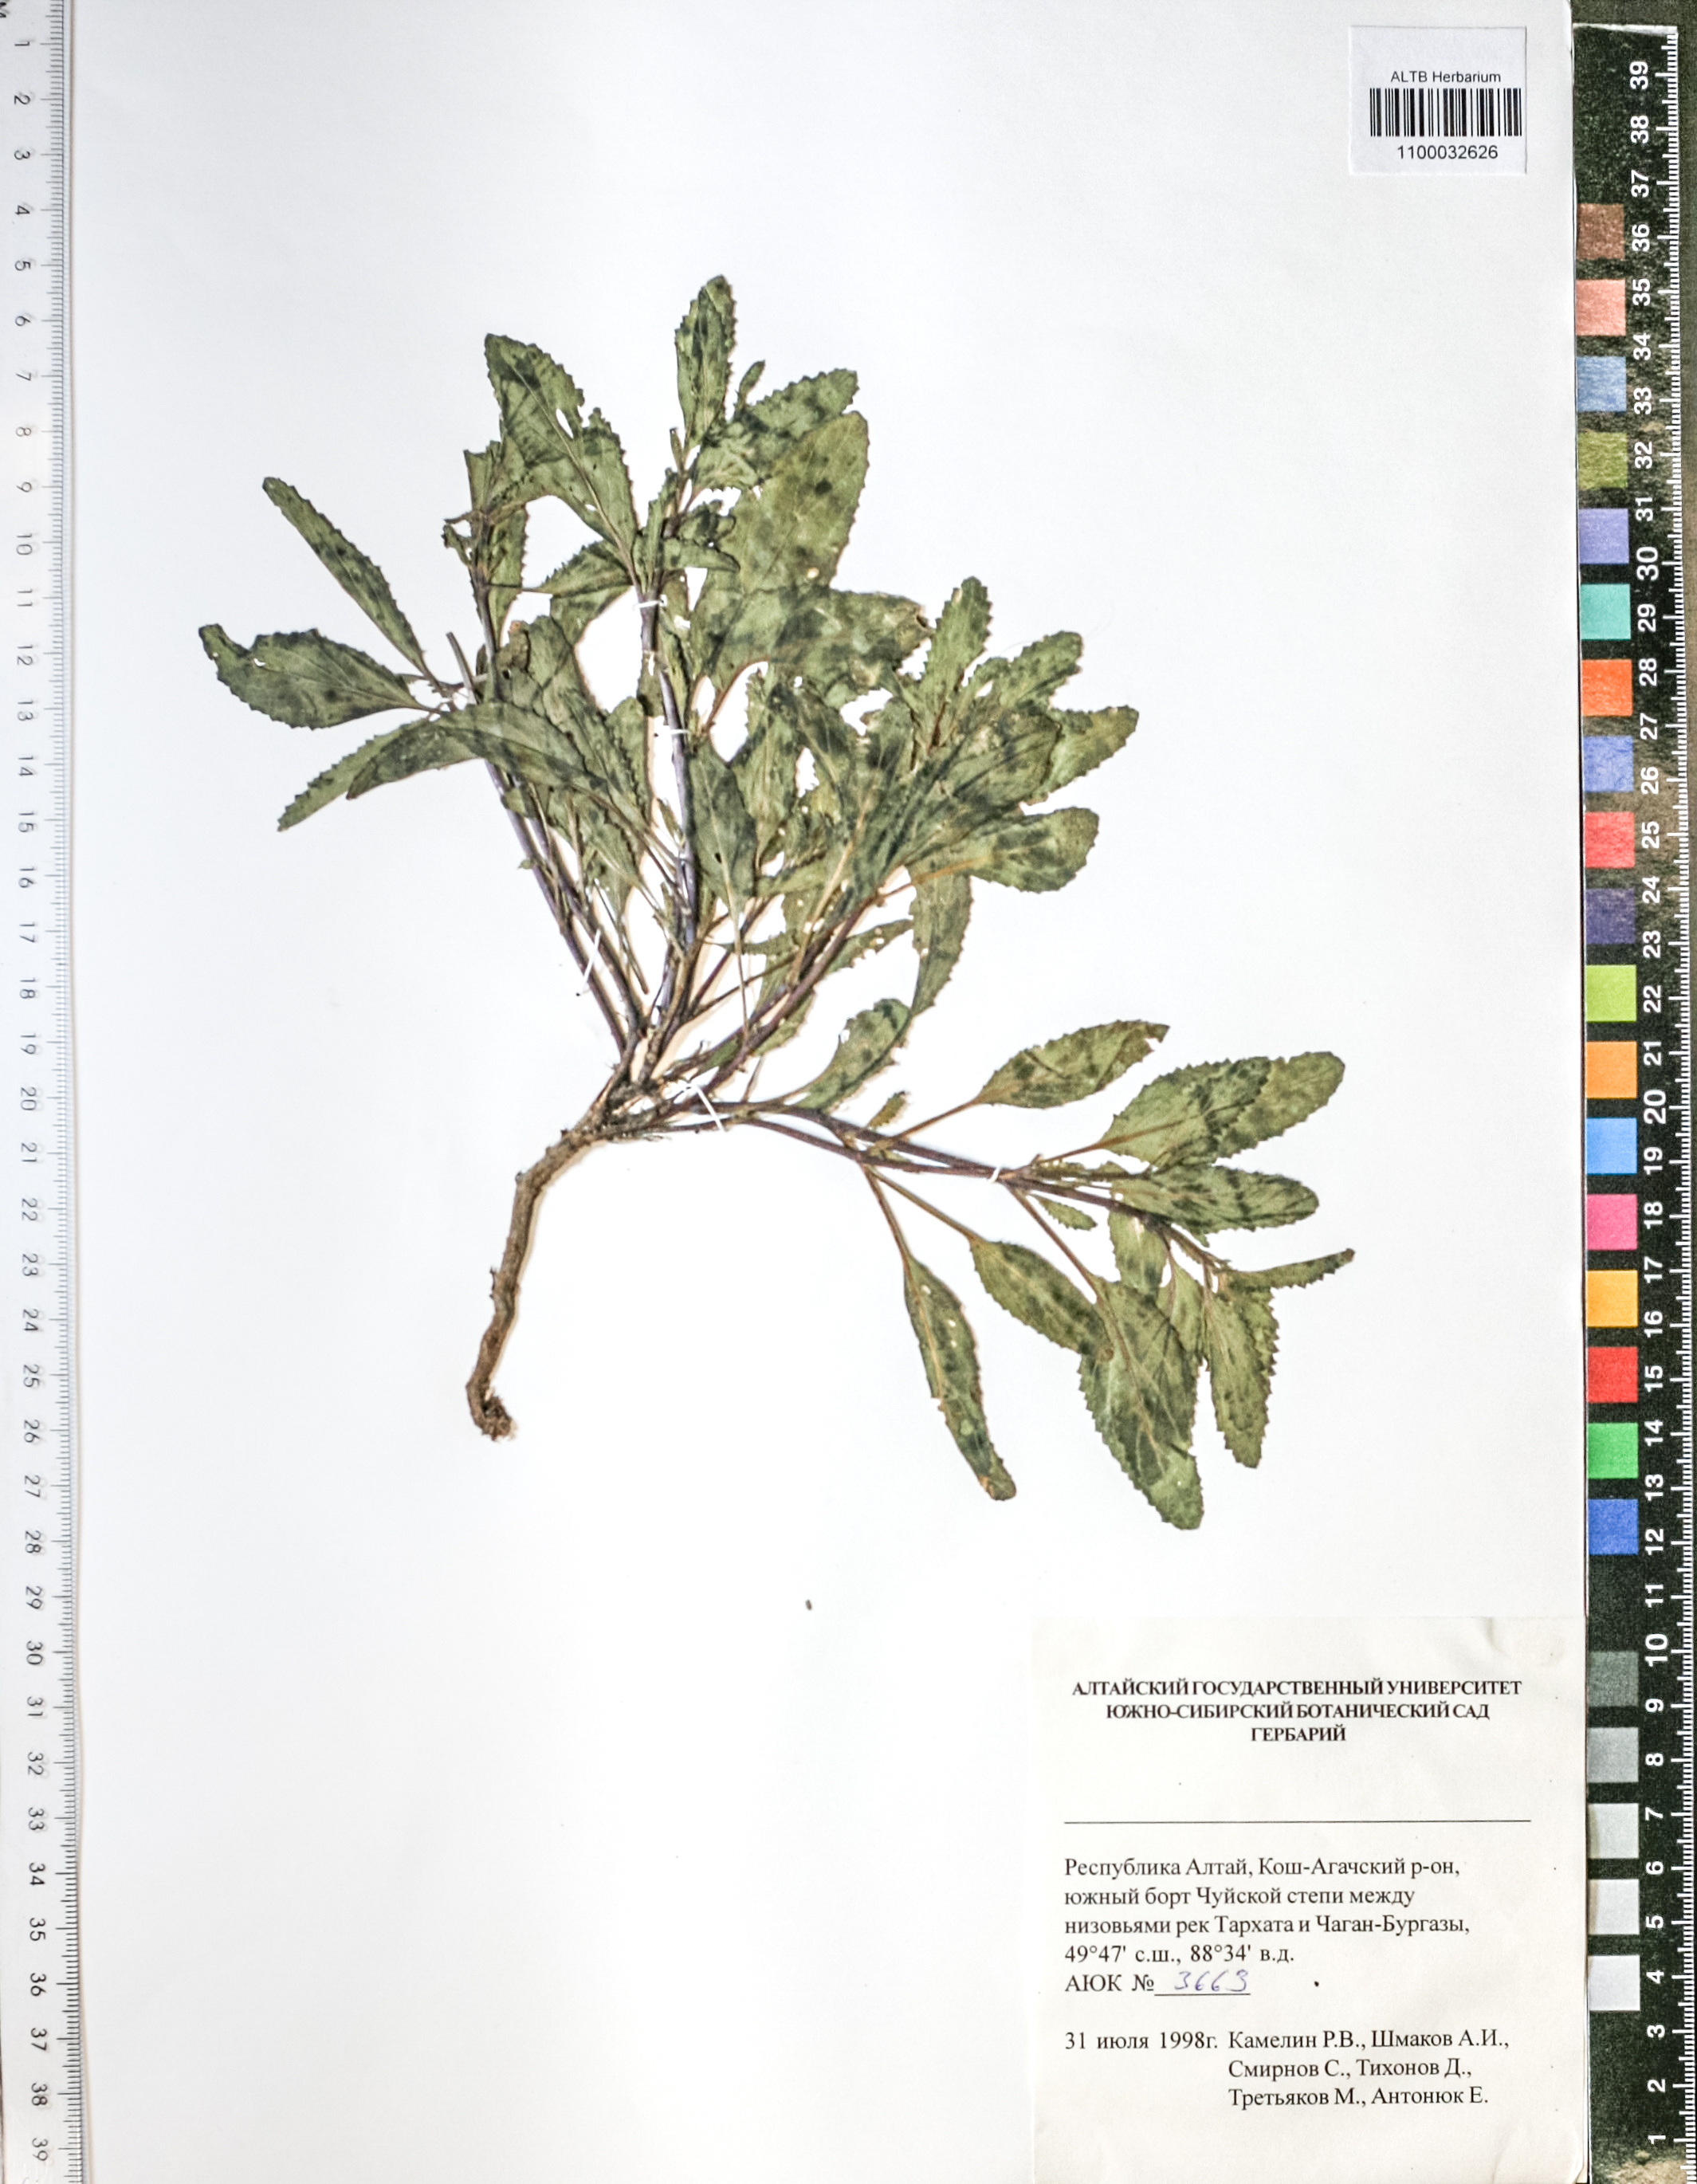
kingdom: Plantae
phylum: Tracheophyta
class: Magnoliopsida
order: Lamiales
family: Scrophulariaceae
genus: Scrophularia
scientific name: Scrophularia incisa
